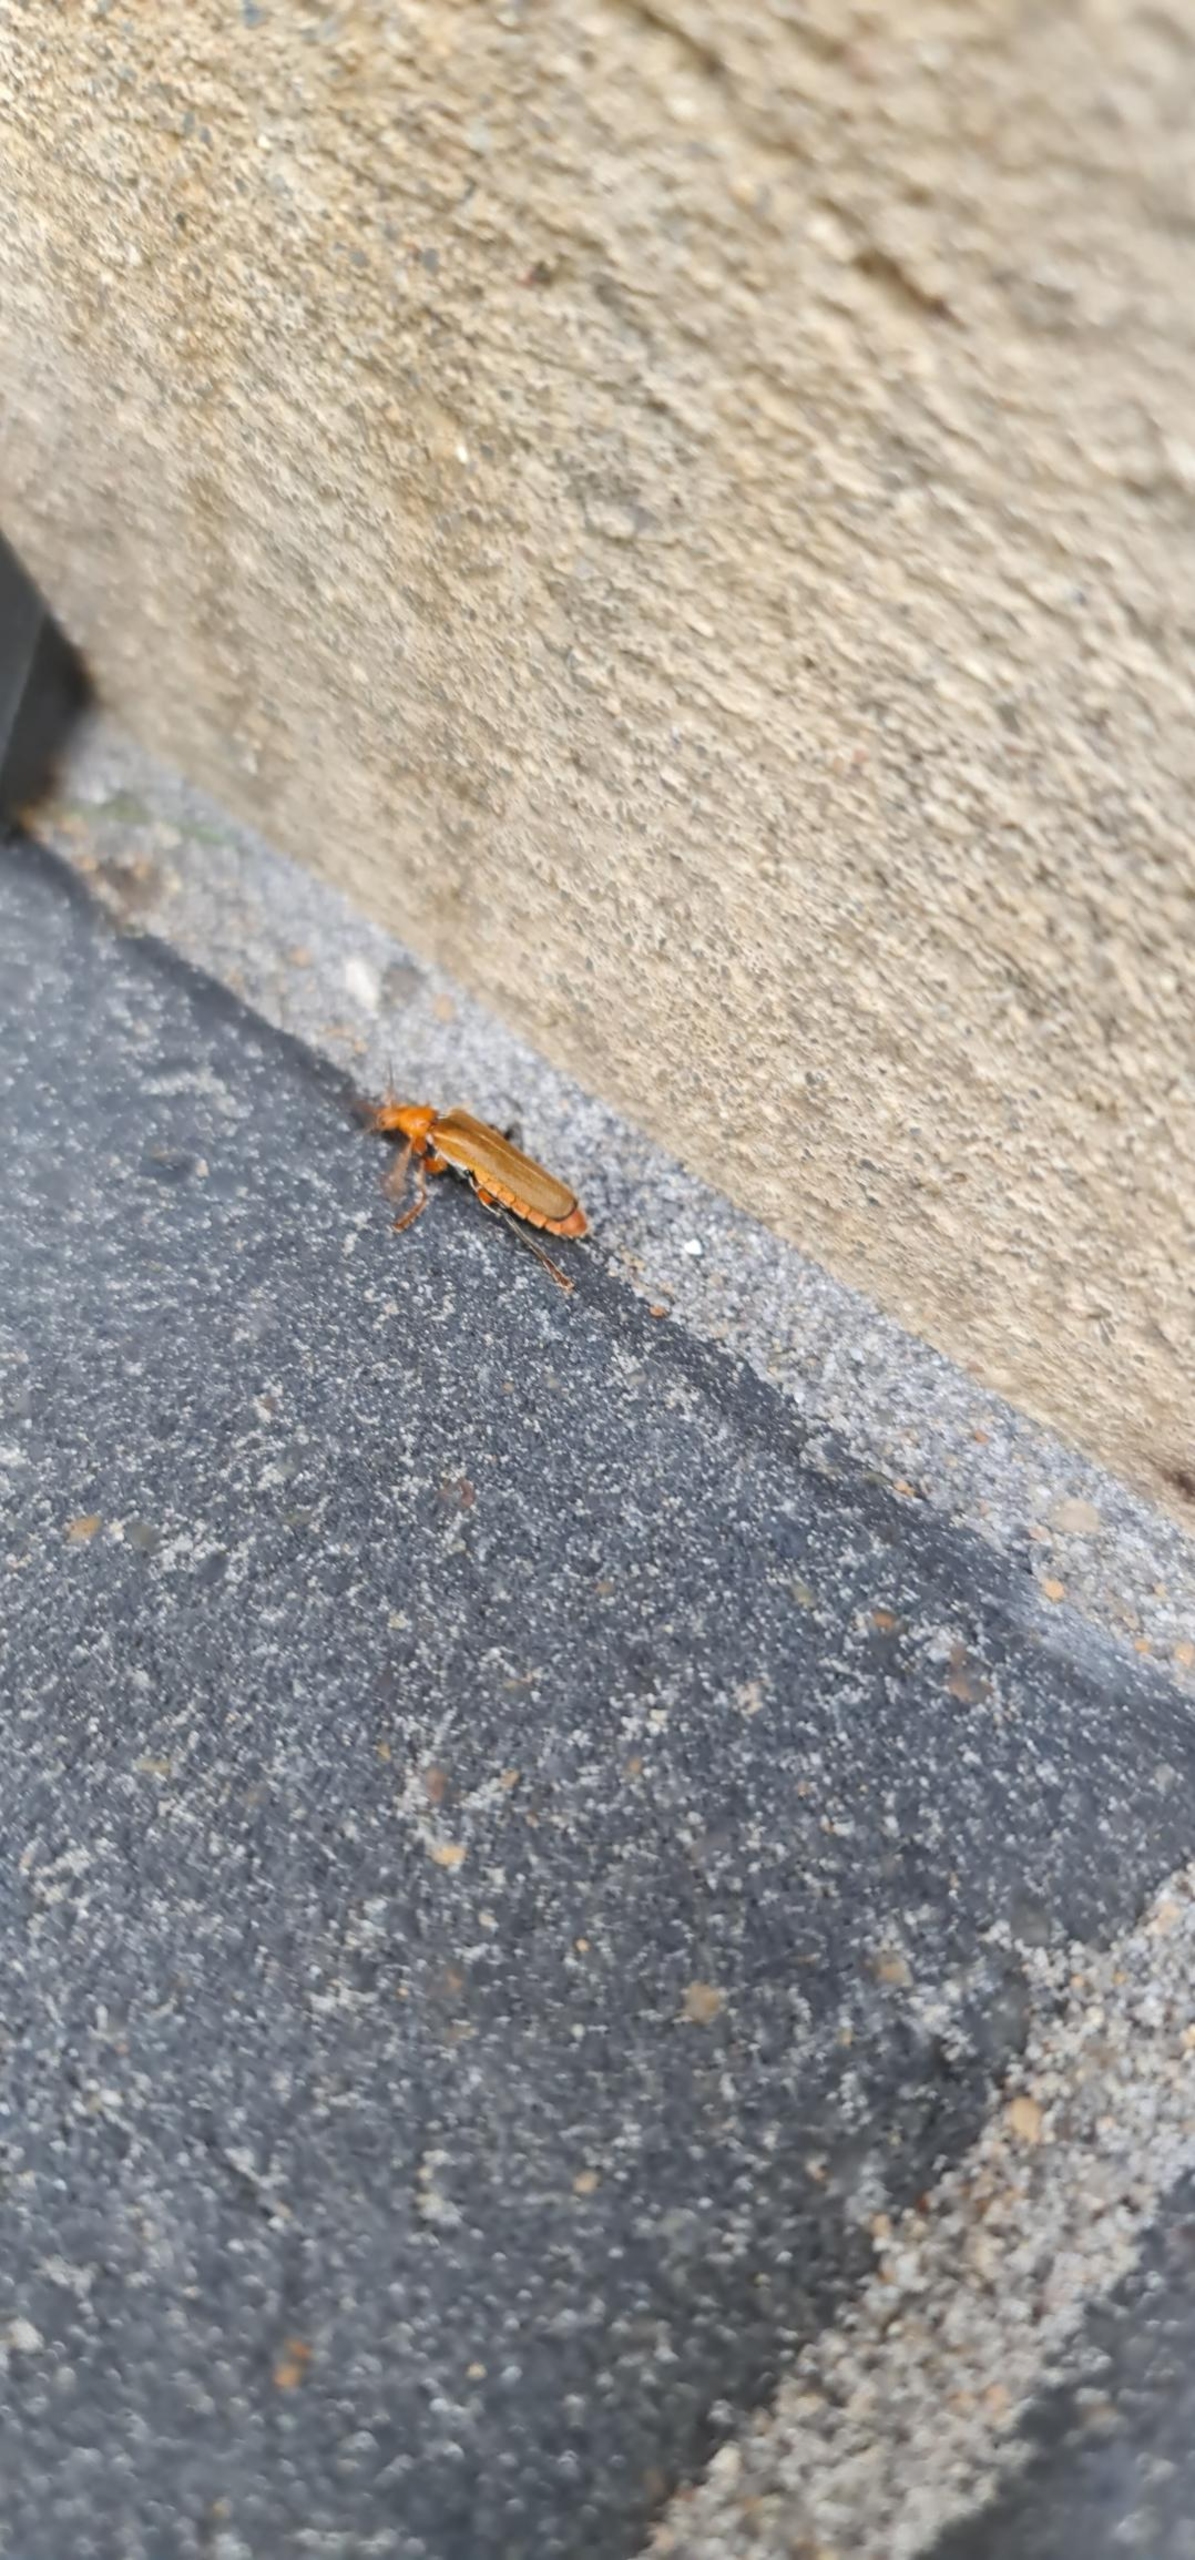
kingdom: Animalia
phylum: Arthropoda
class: Insecta
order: Coleoptera
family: Cantharidae
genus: Cantharis
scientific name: Cantharis livida
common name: Gul blødvinge
